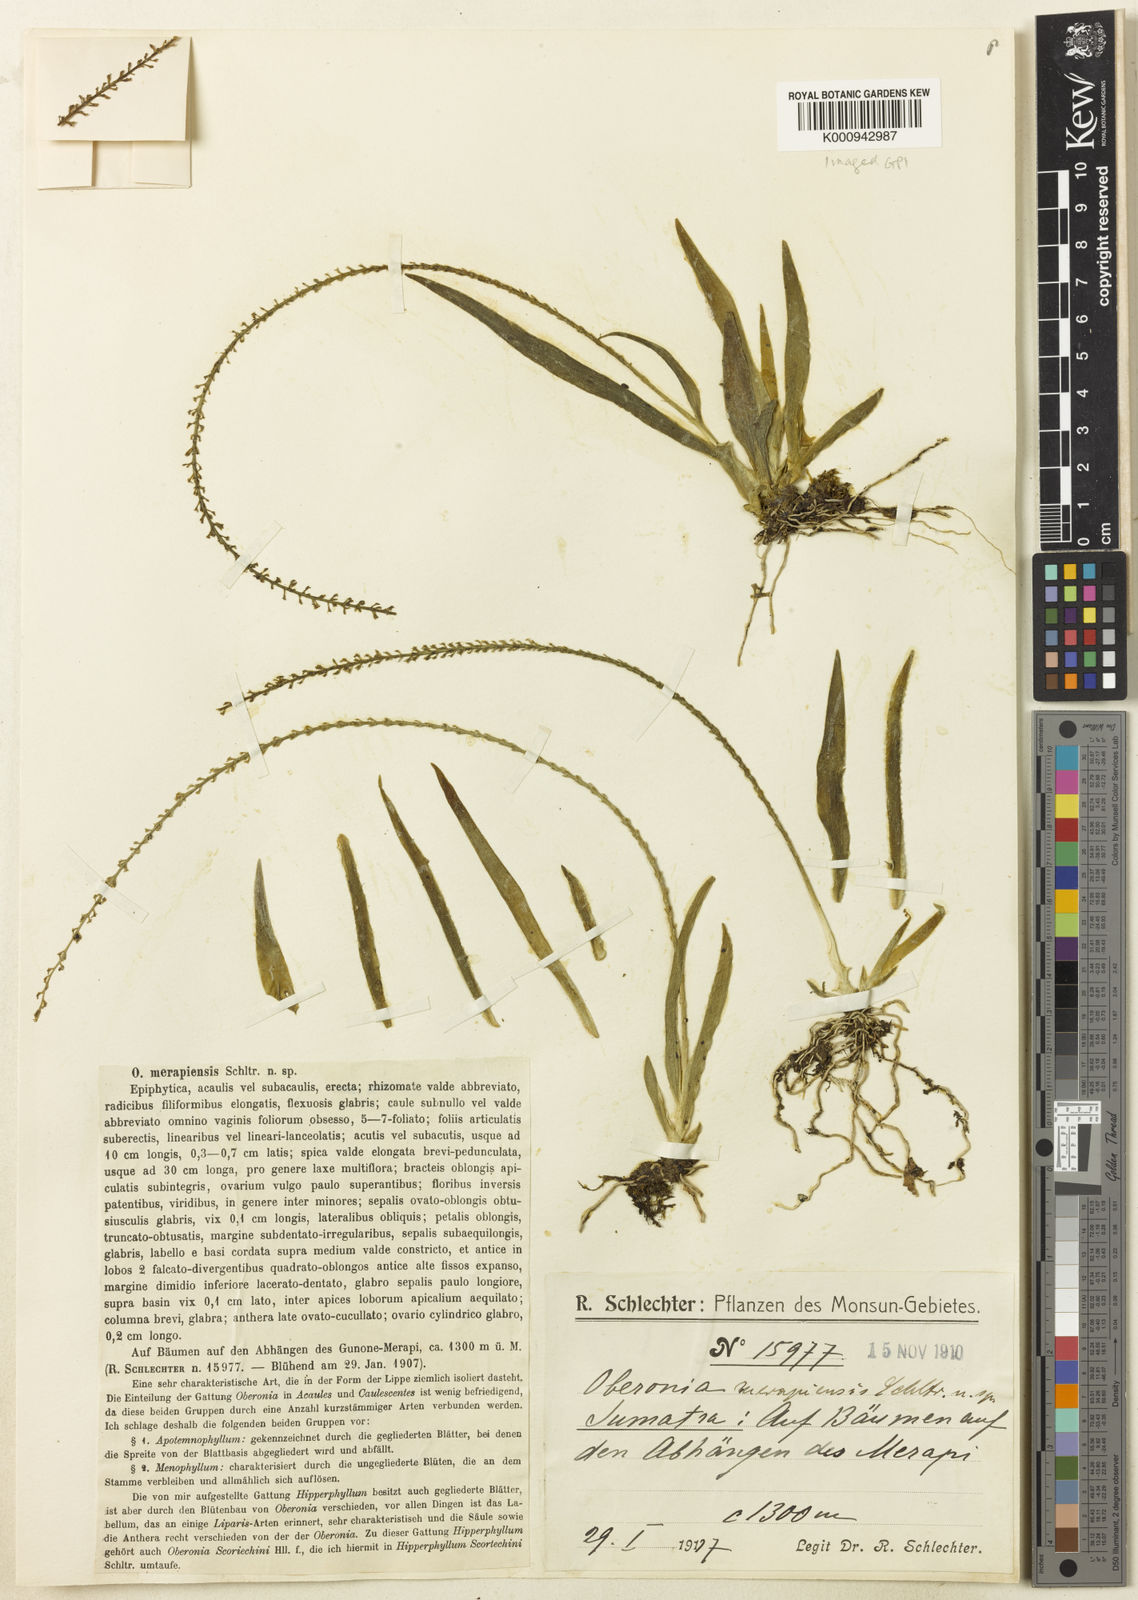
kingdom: Plantae
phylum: Tracheophyta
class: Liliopsida
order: Asparagales
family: Orchidaceae
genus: Oberonia
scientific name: Oberonia merapiensis
